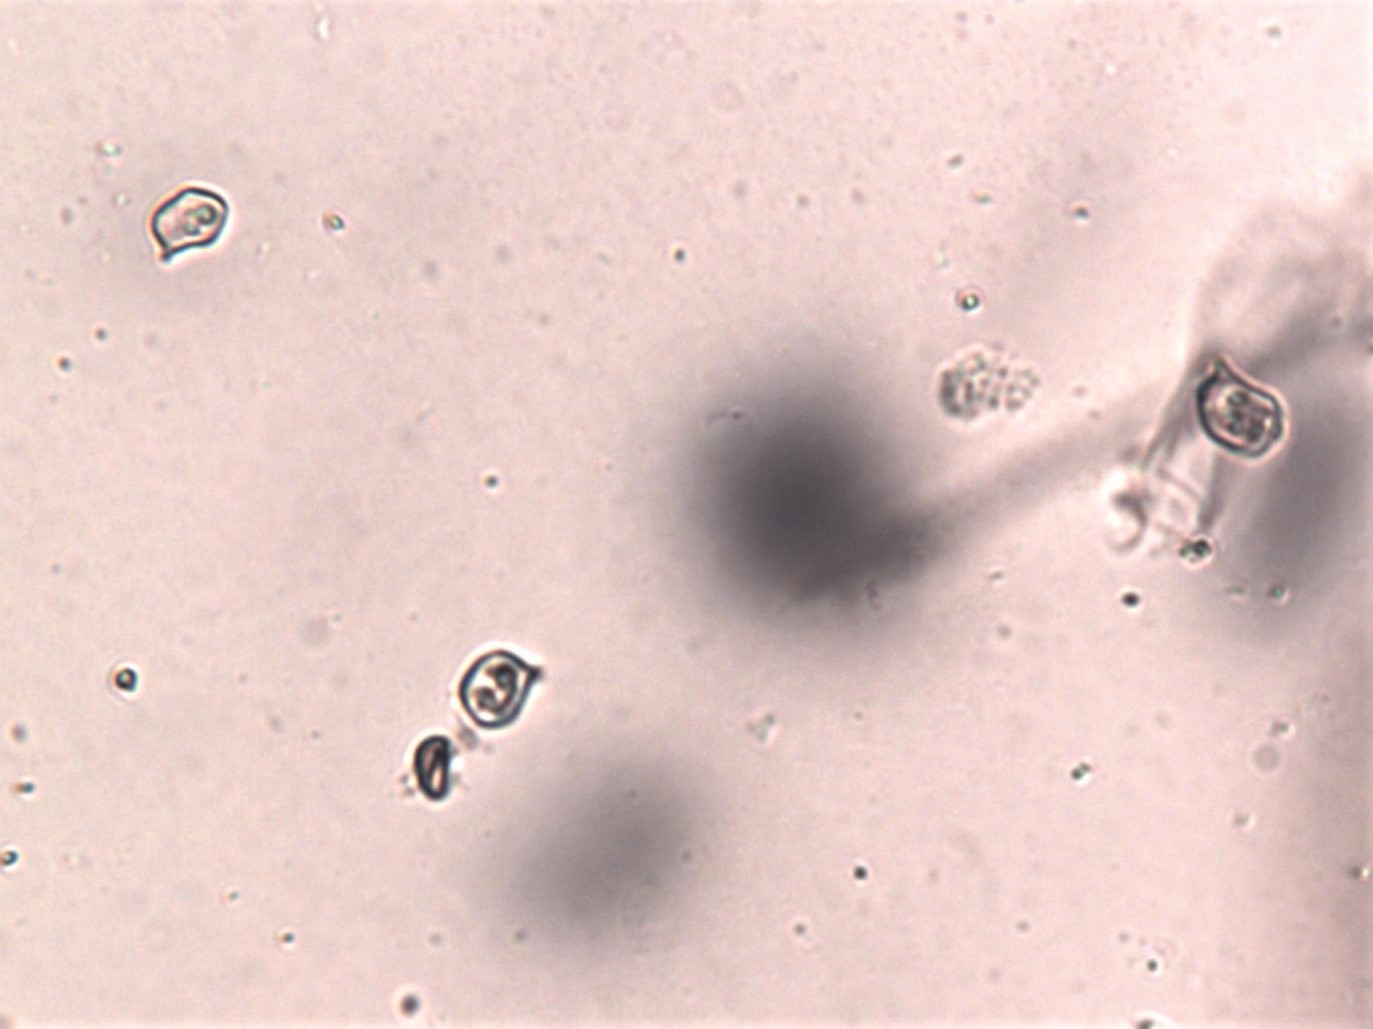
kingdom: Fungi
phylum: Basidiomycota
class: Agaricomycetes
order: Agaricales
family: Entolomataceae
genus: Entoloma
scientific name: Entoloma vernum
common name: vår-rødblad
